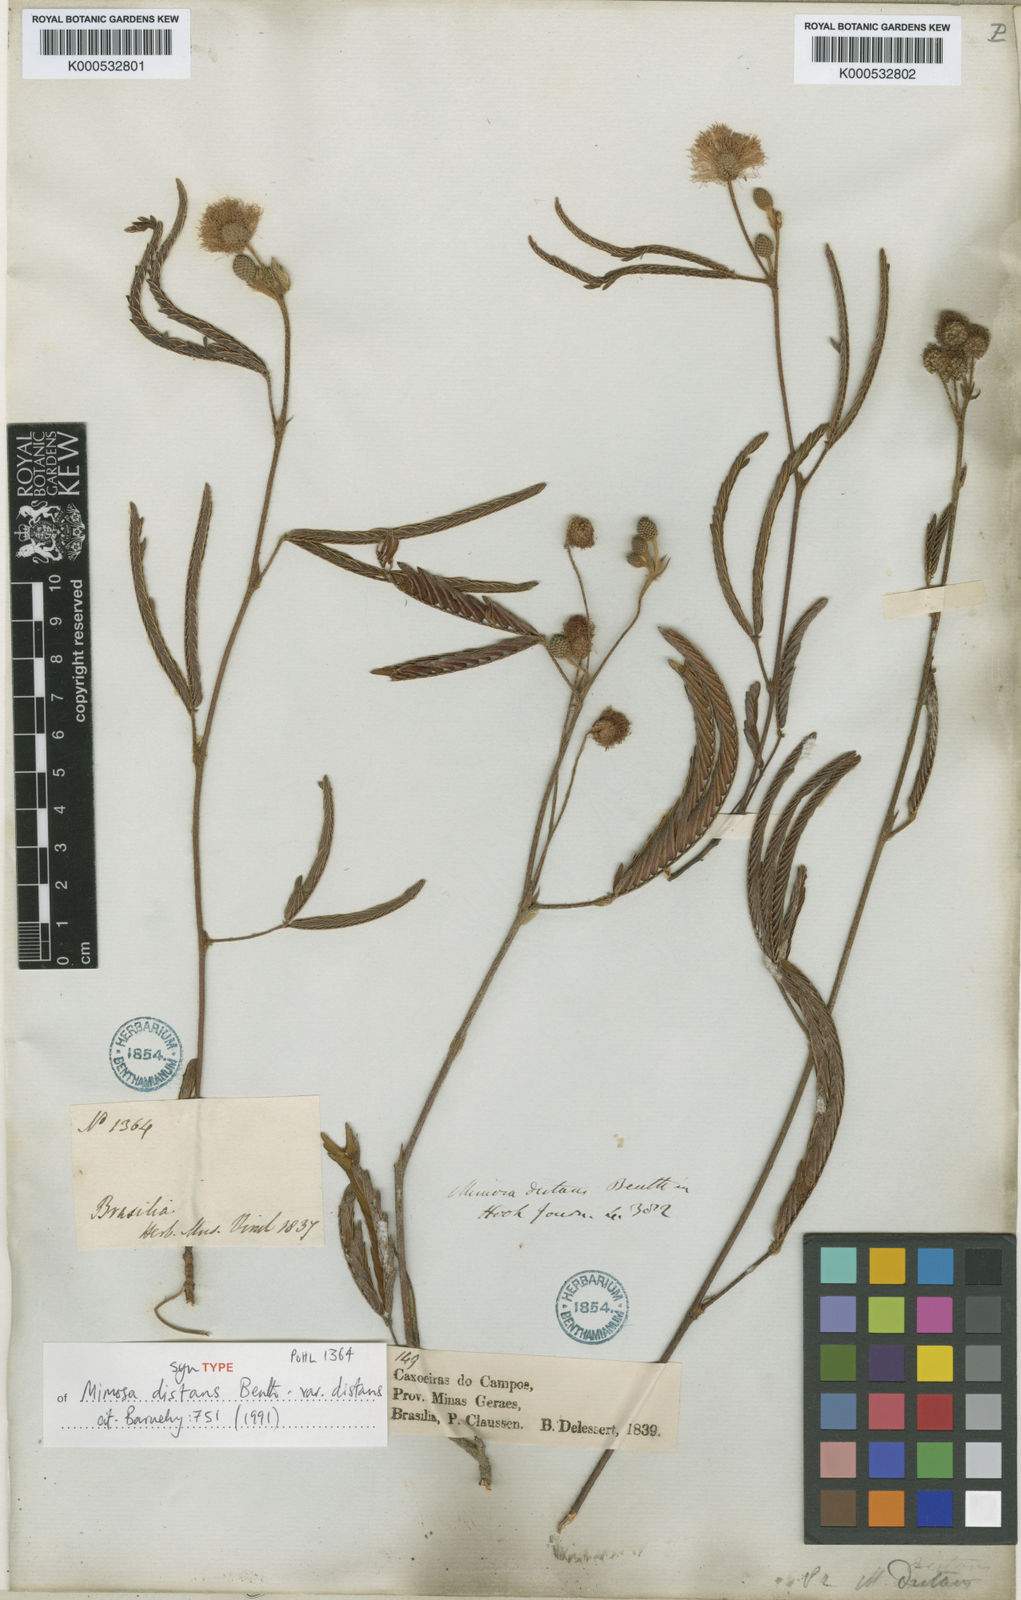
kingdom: Plantae
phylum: Tracheophyta
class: Magnoliopsida
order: Fabales
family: Fabaceae
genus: Mimosa
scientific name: Mimosa distans
